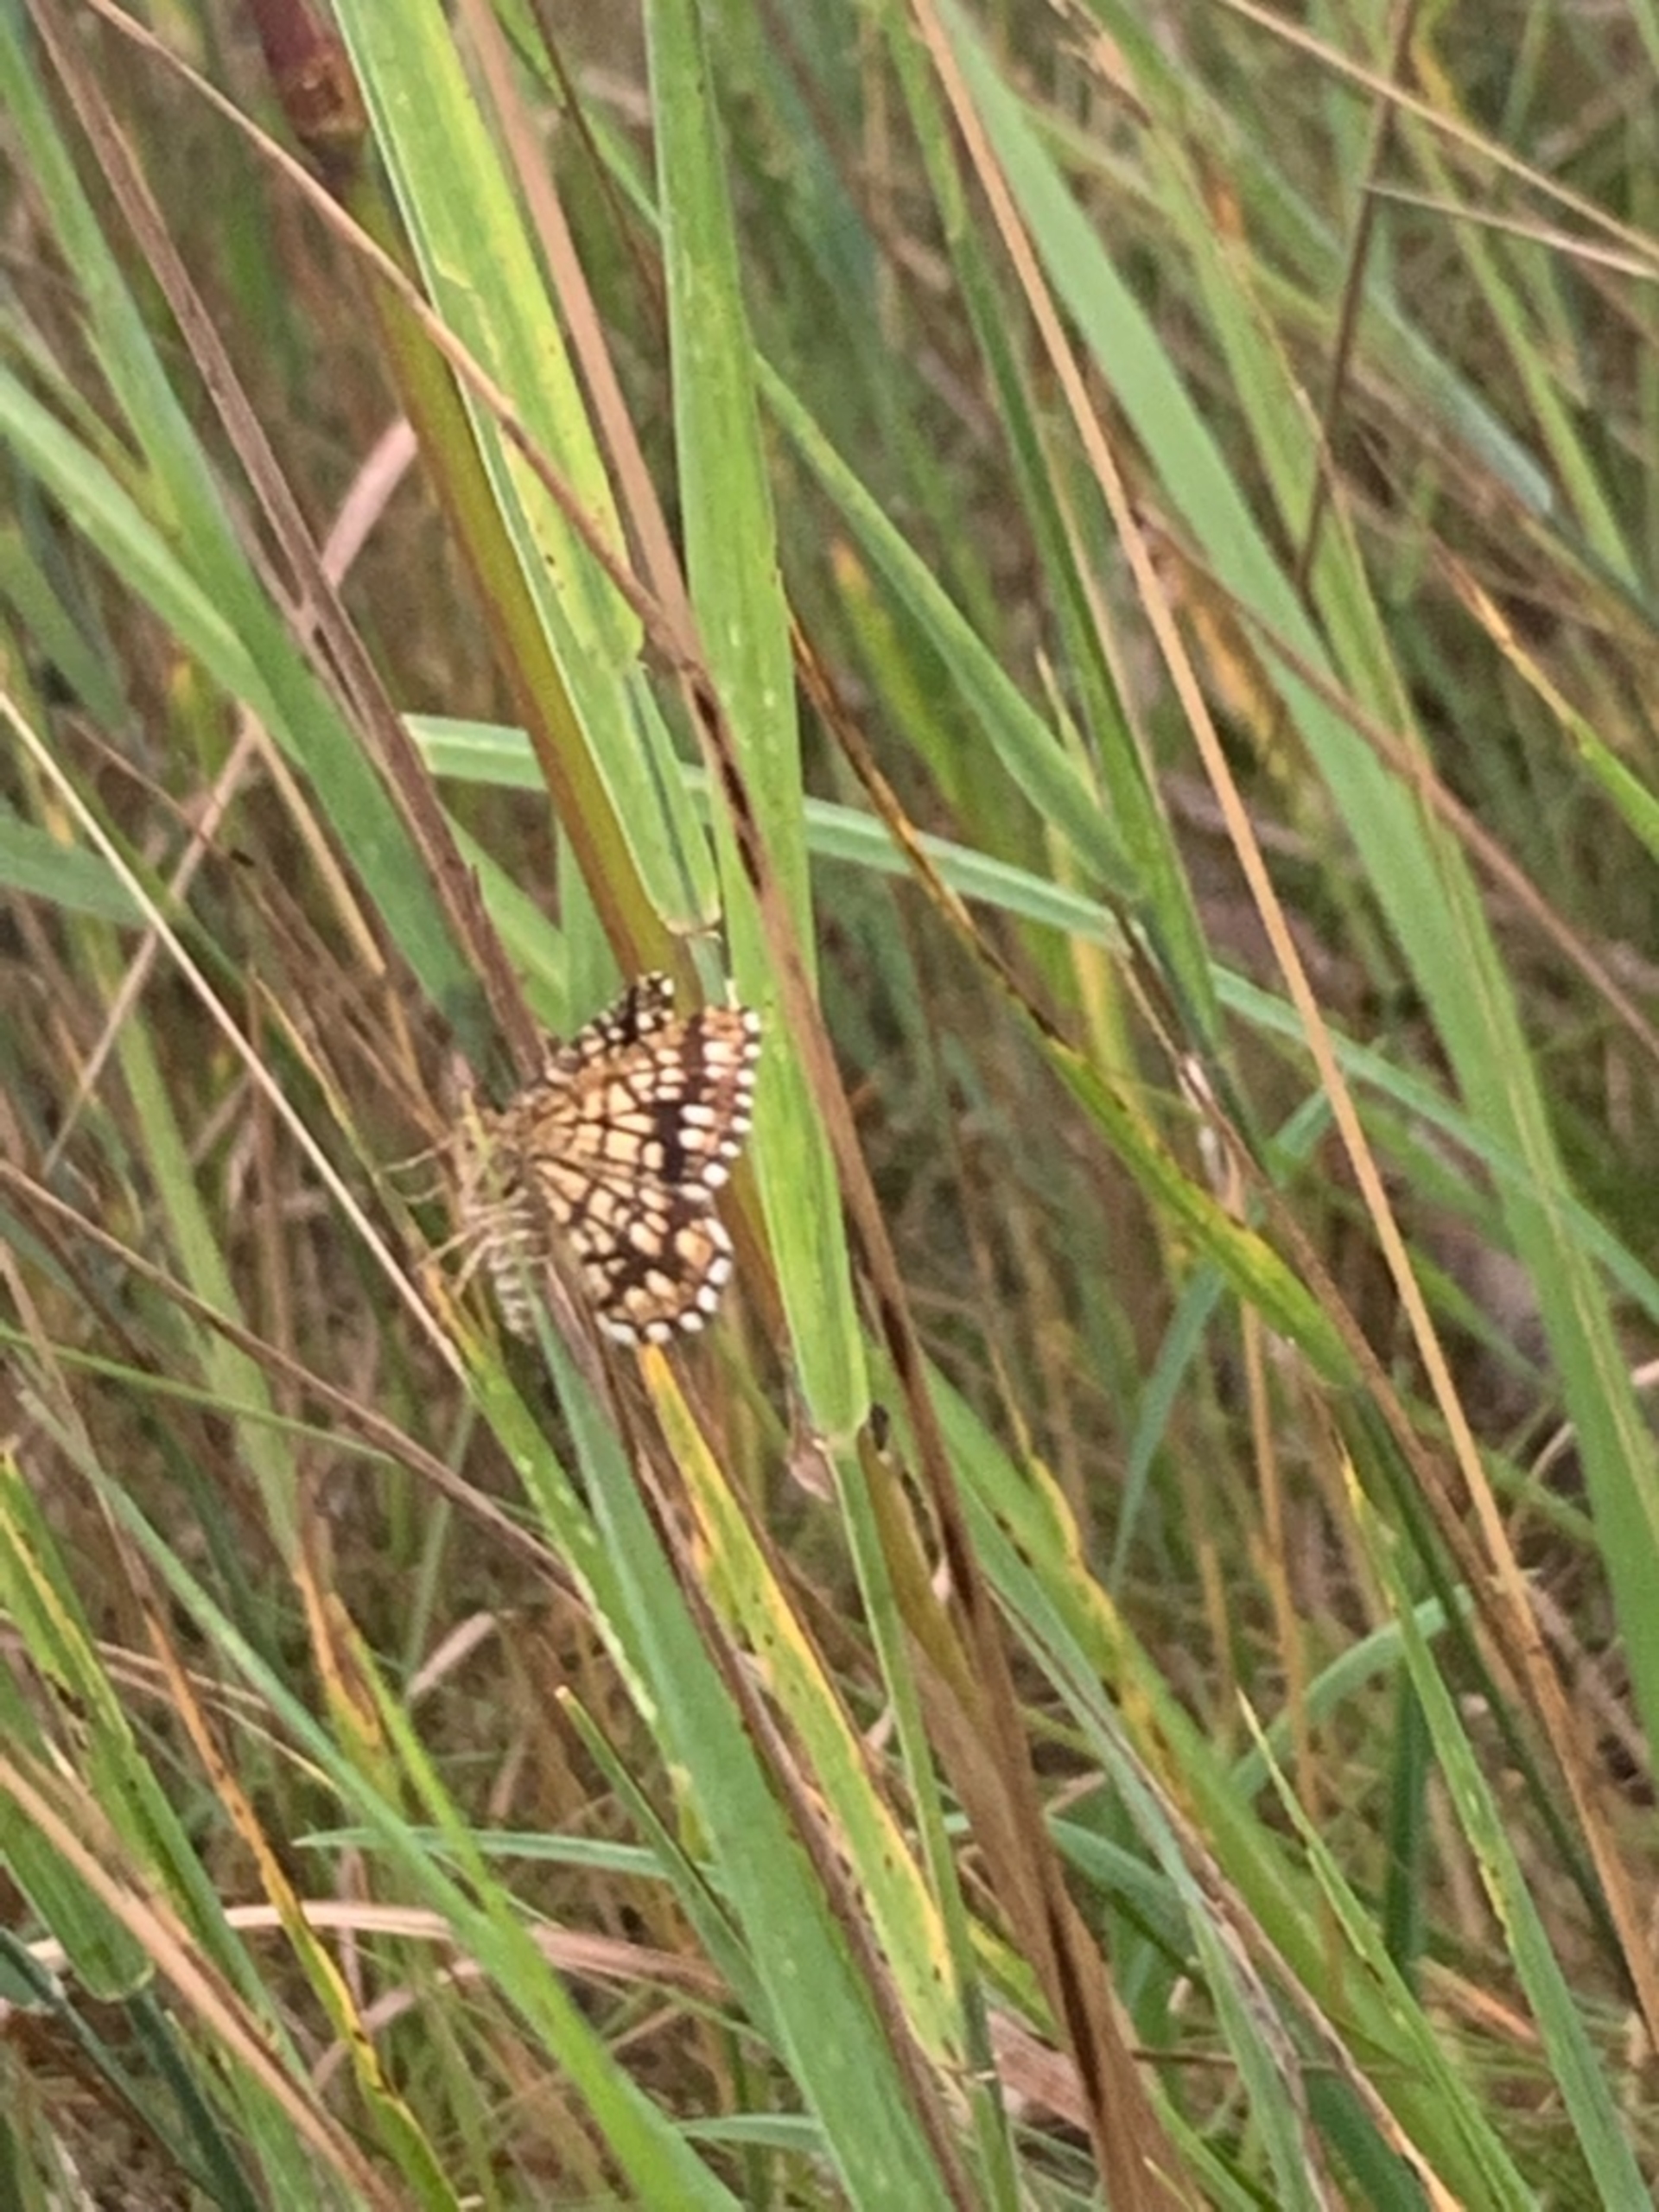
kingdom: Animalia
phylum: Arthropoda
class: Insecta
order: Lepidoptera
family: Geometridae
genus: Chiasmia
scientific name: Chiasmia clathrata
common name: Kløvermåler
